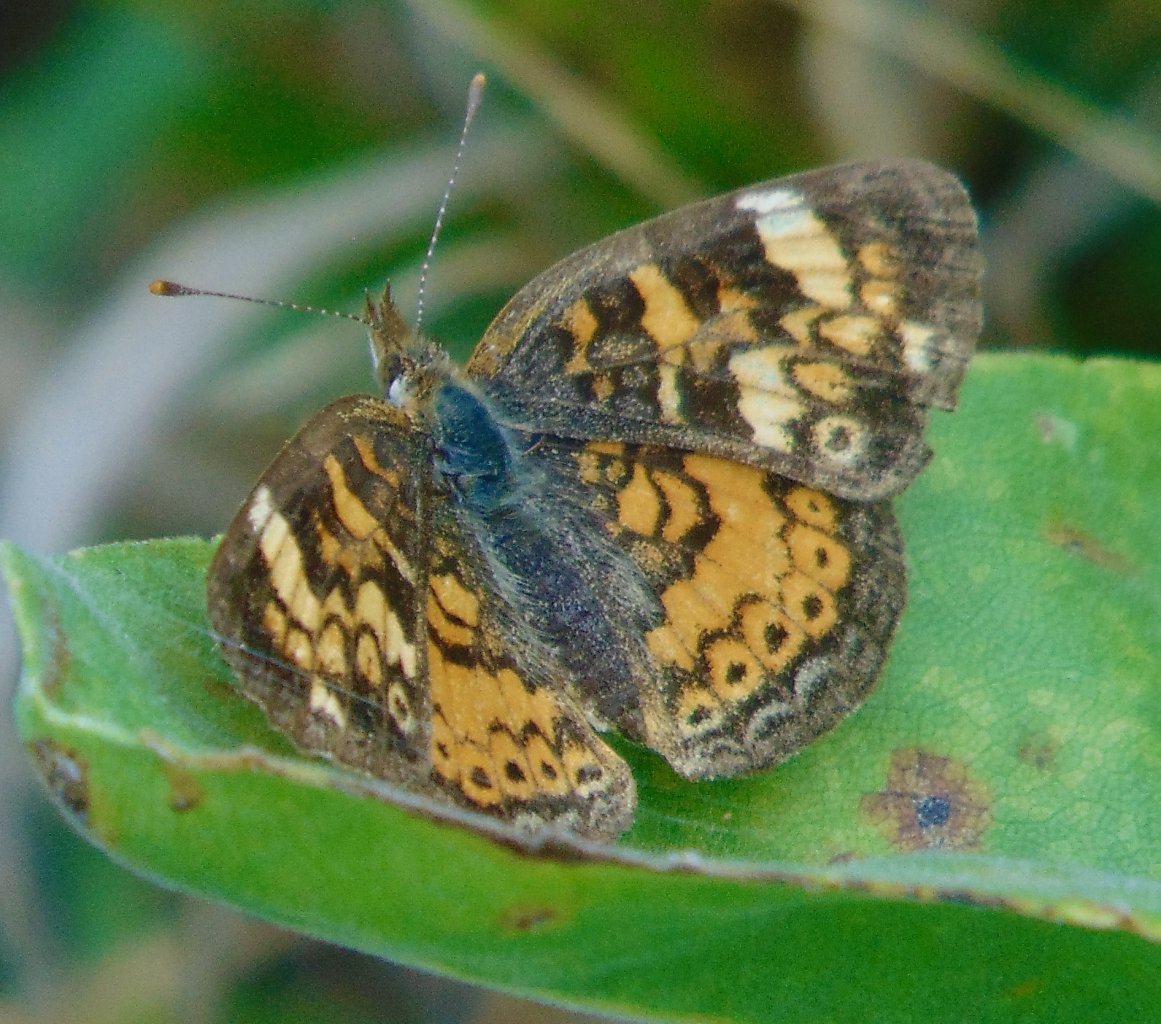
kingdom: Animalia
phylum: Arthropoda
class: Insecta
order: Lepidoptera
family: Nymphalidae
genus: Phyciodes
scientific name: Phyciodes tharos
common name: Pearl Crescent
